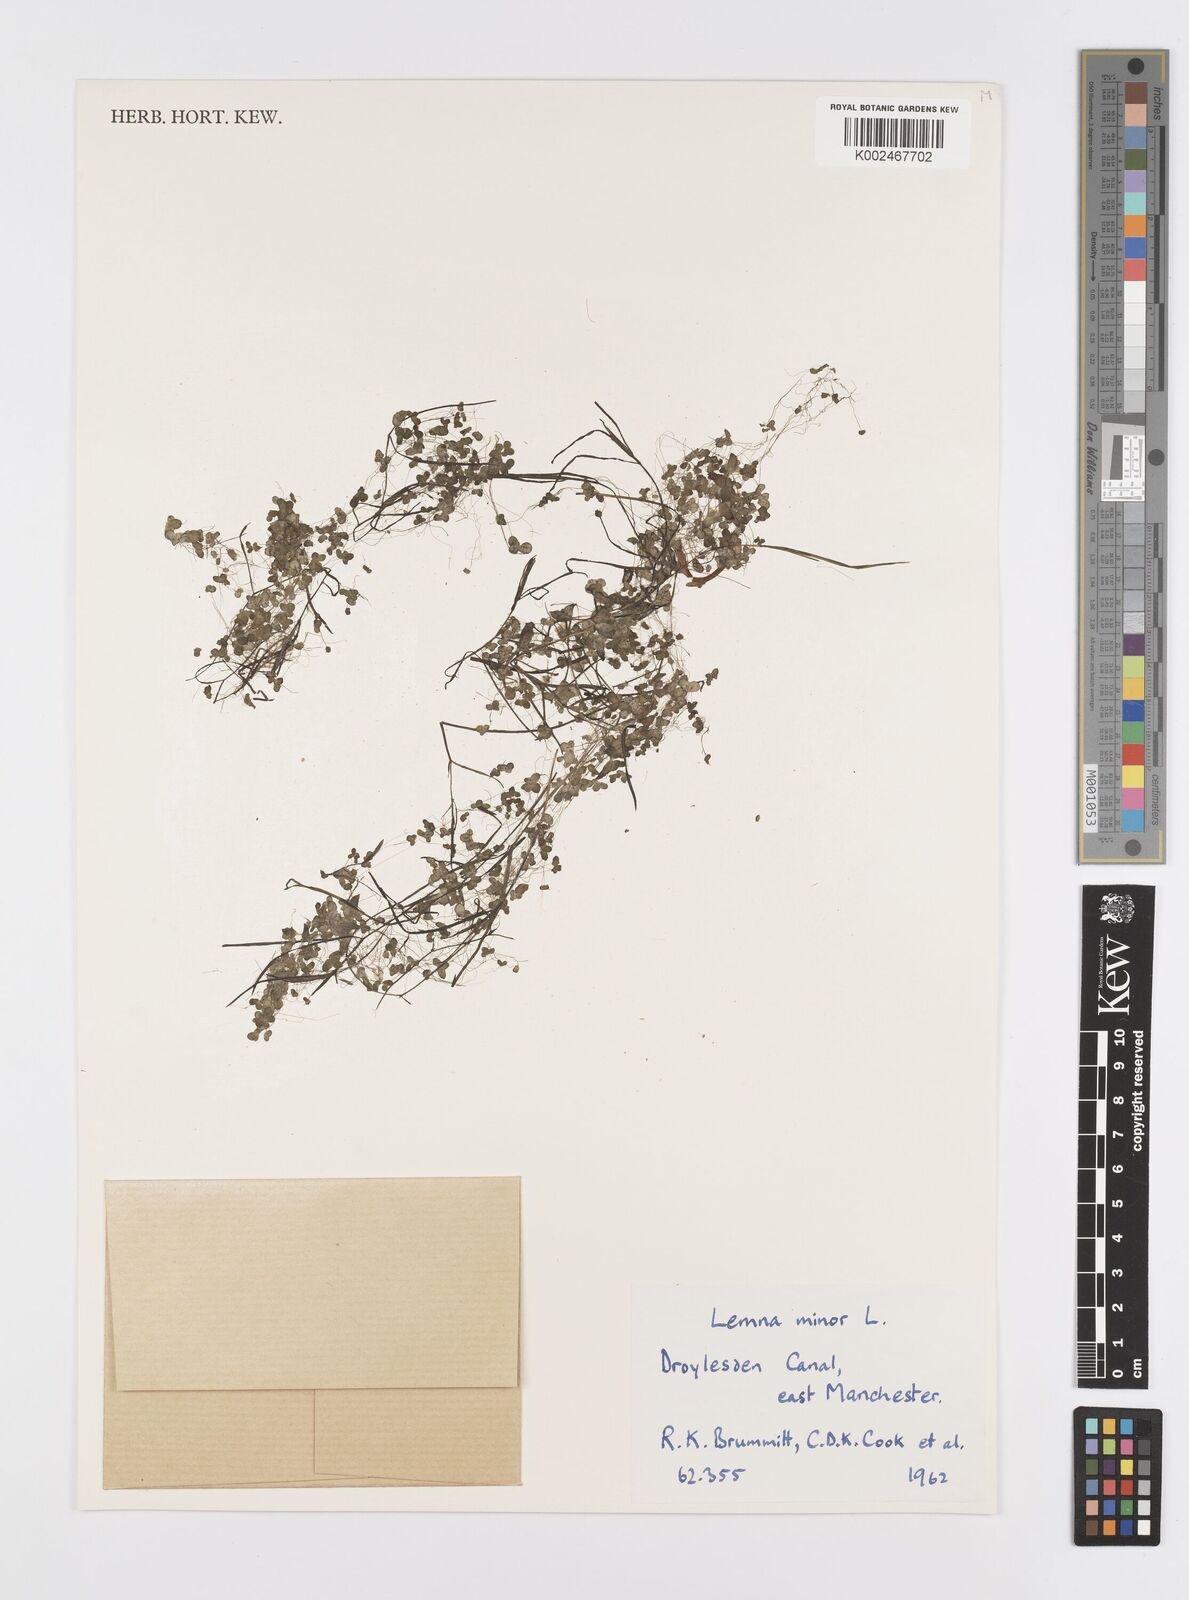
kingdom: Plantae
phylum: Tracheophyta
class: Liliopsida
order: Alismatales
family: Araceae
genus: Lemna
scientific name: Lemna minor
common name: Common duckweed
